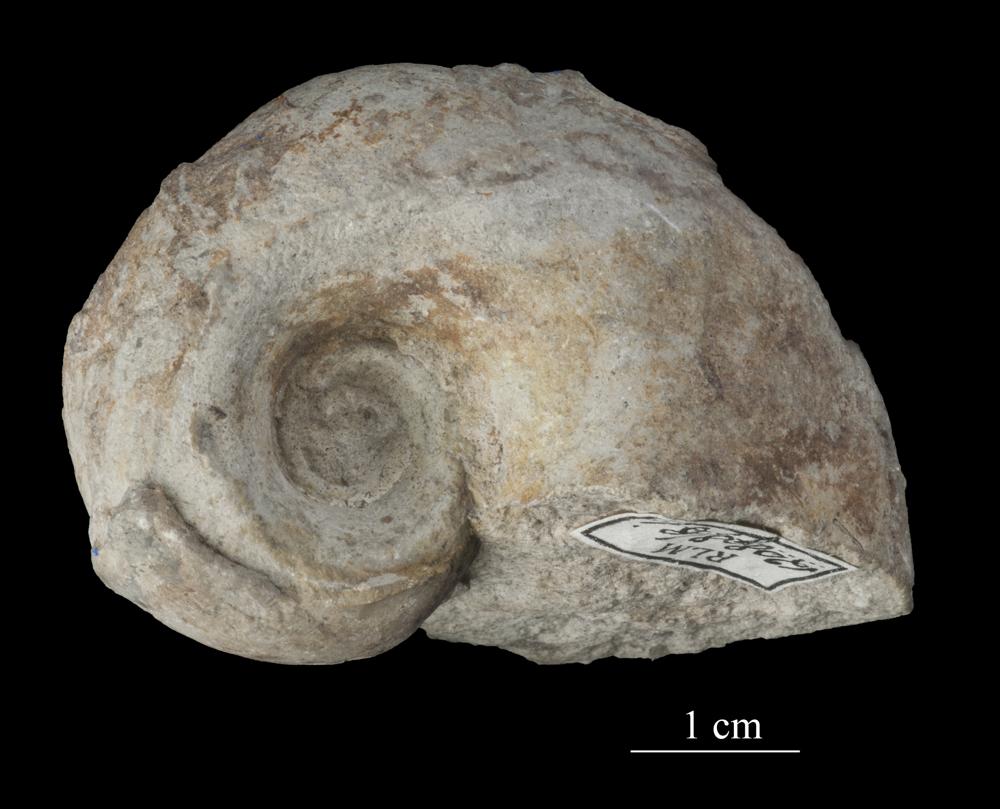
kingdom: Animalia
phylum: Mollusca
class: Gastropoda
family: Bucaniidae
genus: Bucania
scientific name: Bucania cornu
